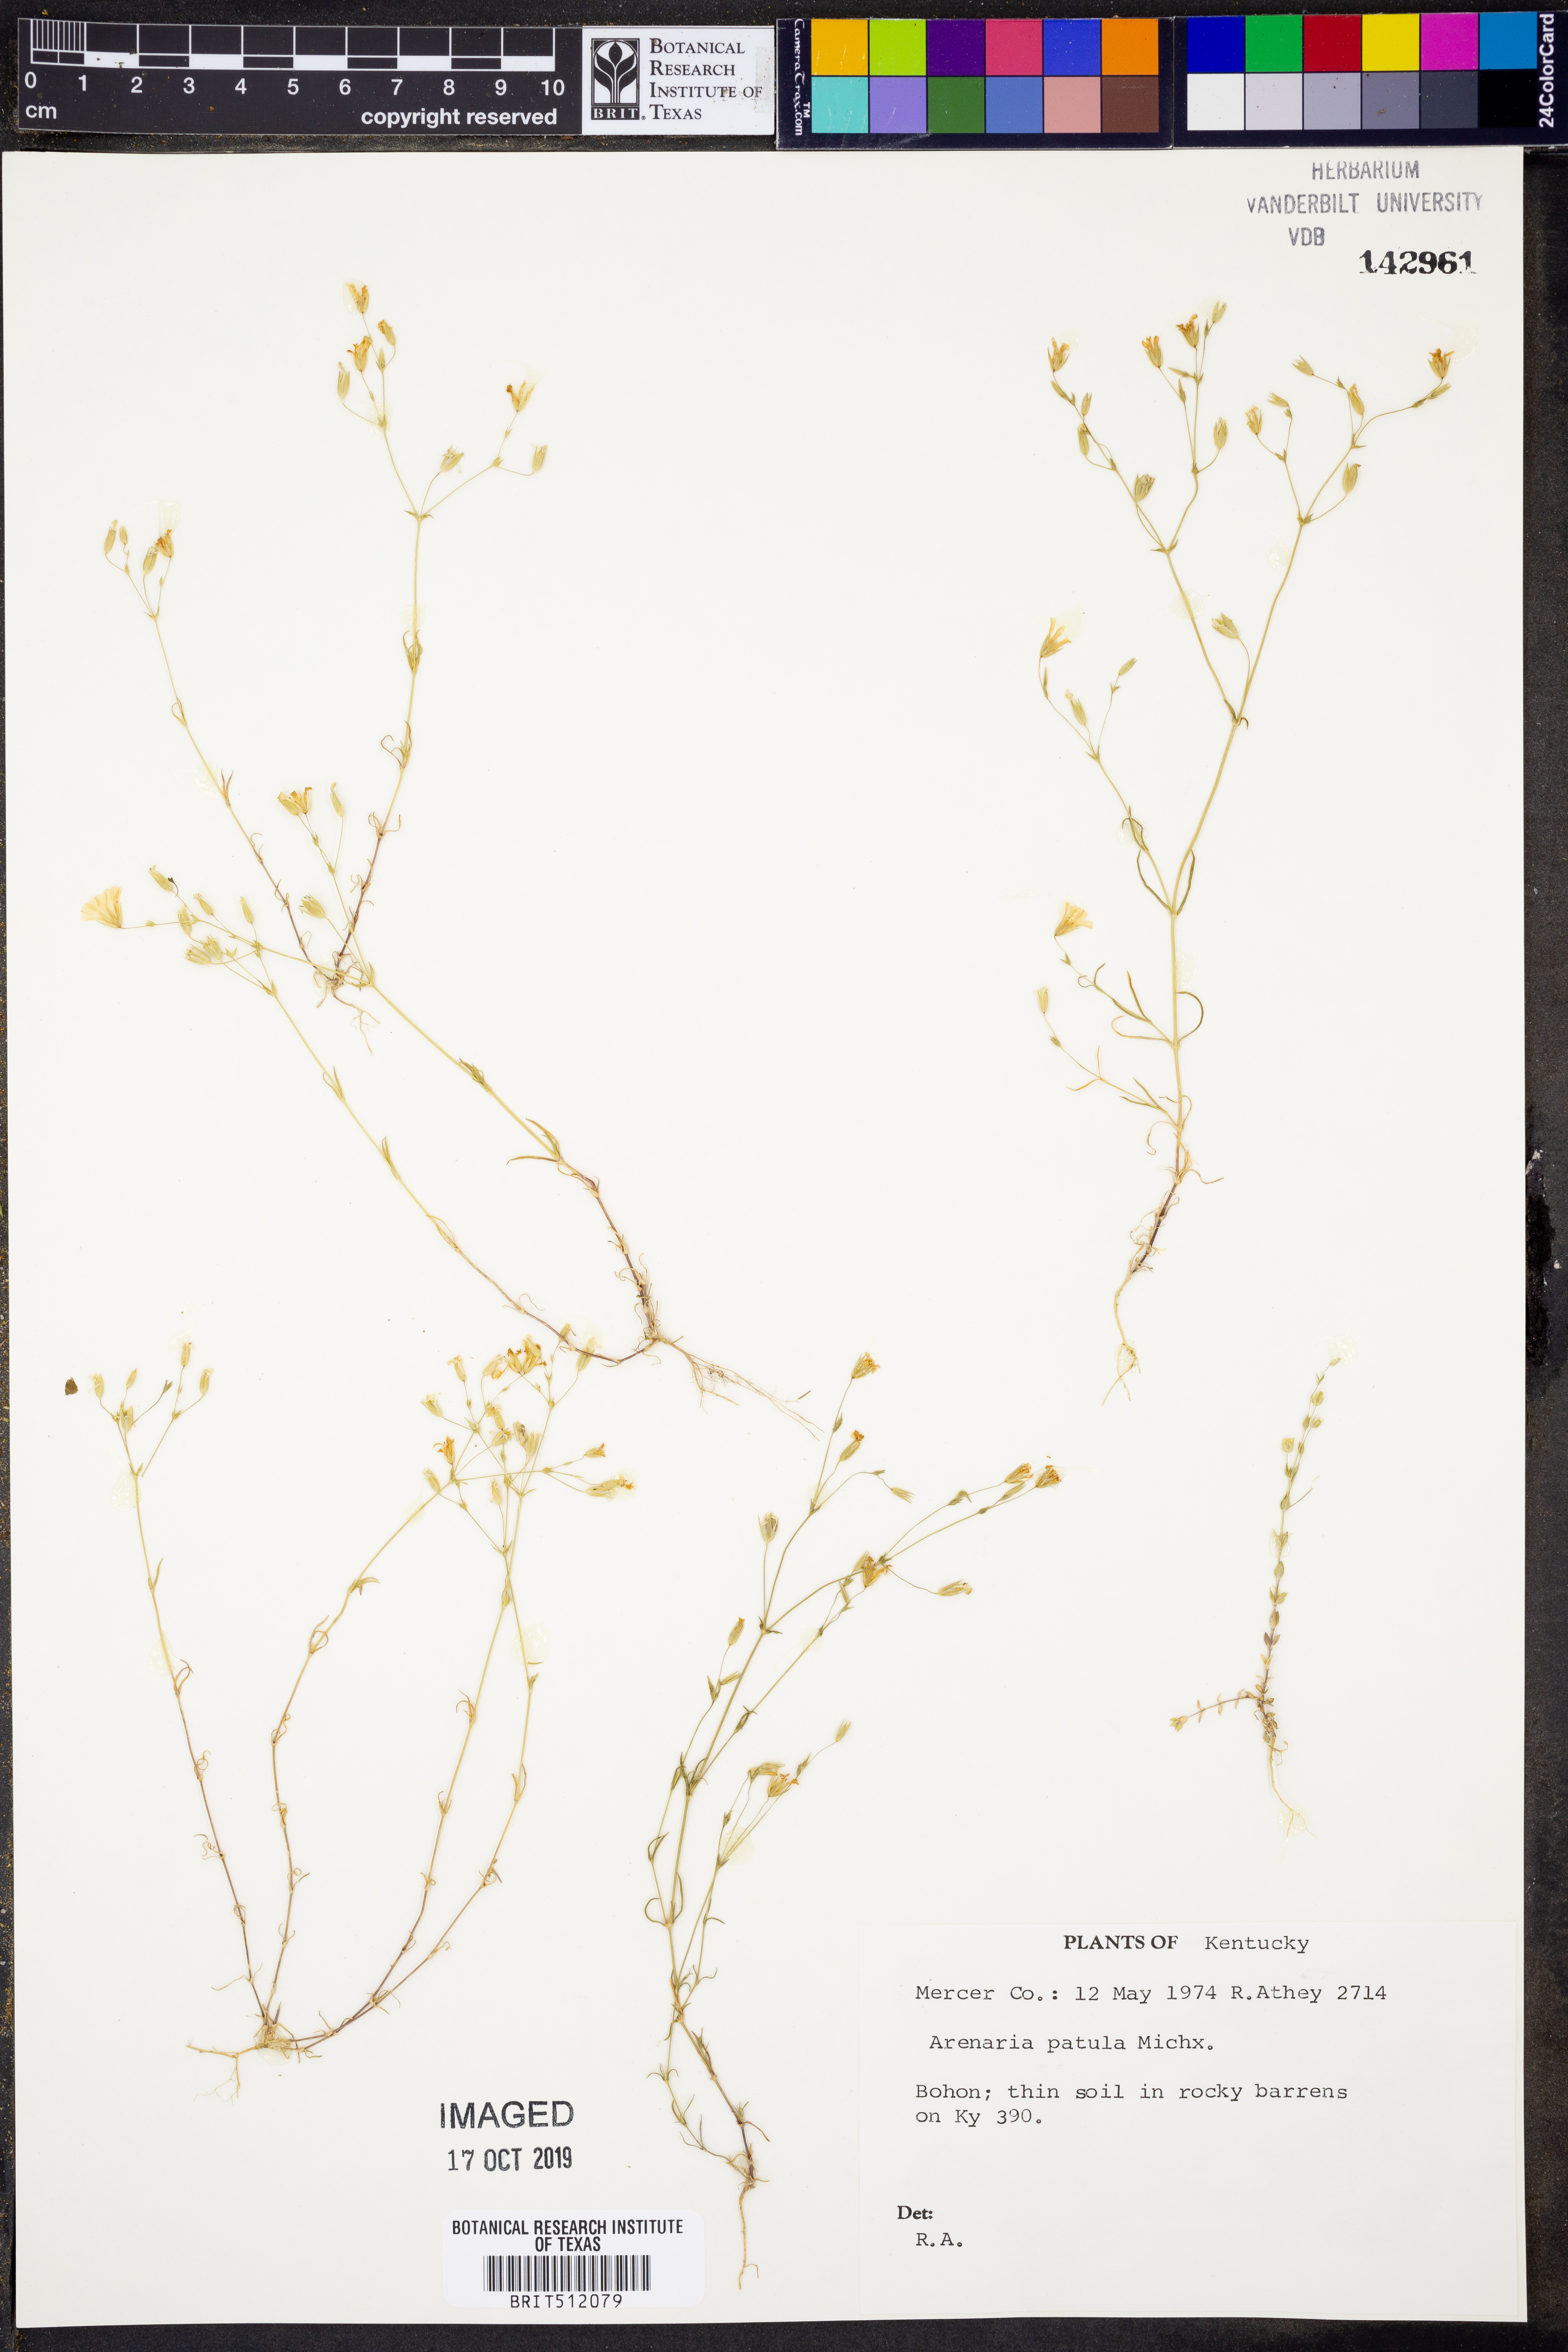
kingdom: Plantae
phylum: Tracheophyta
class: Magnoliopsida
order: Caryophyllales
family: Caryophyllaceae
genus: Mononeuria
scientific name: Mononeuria patula
